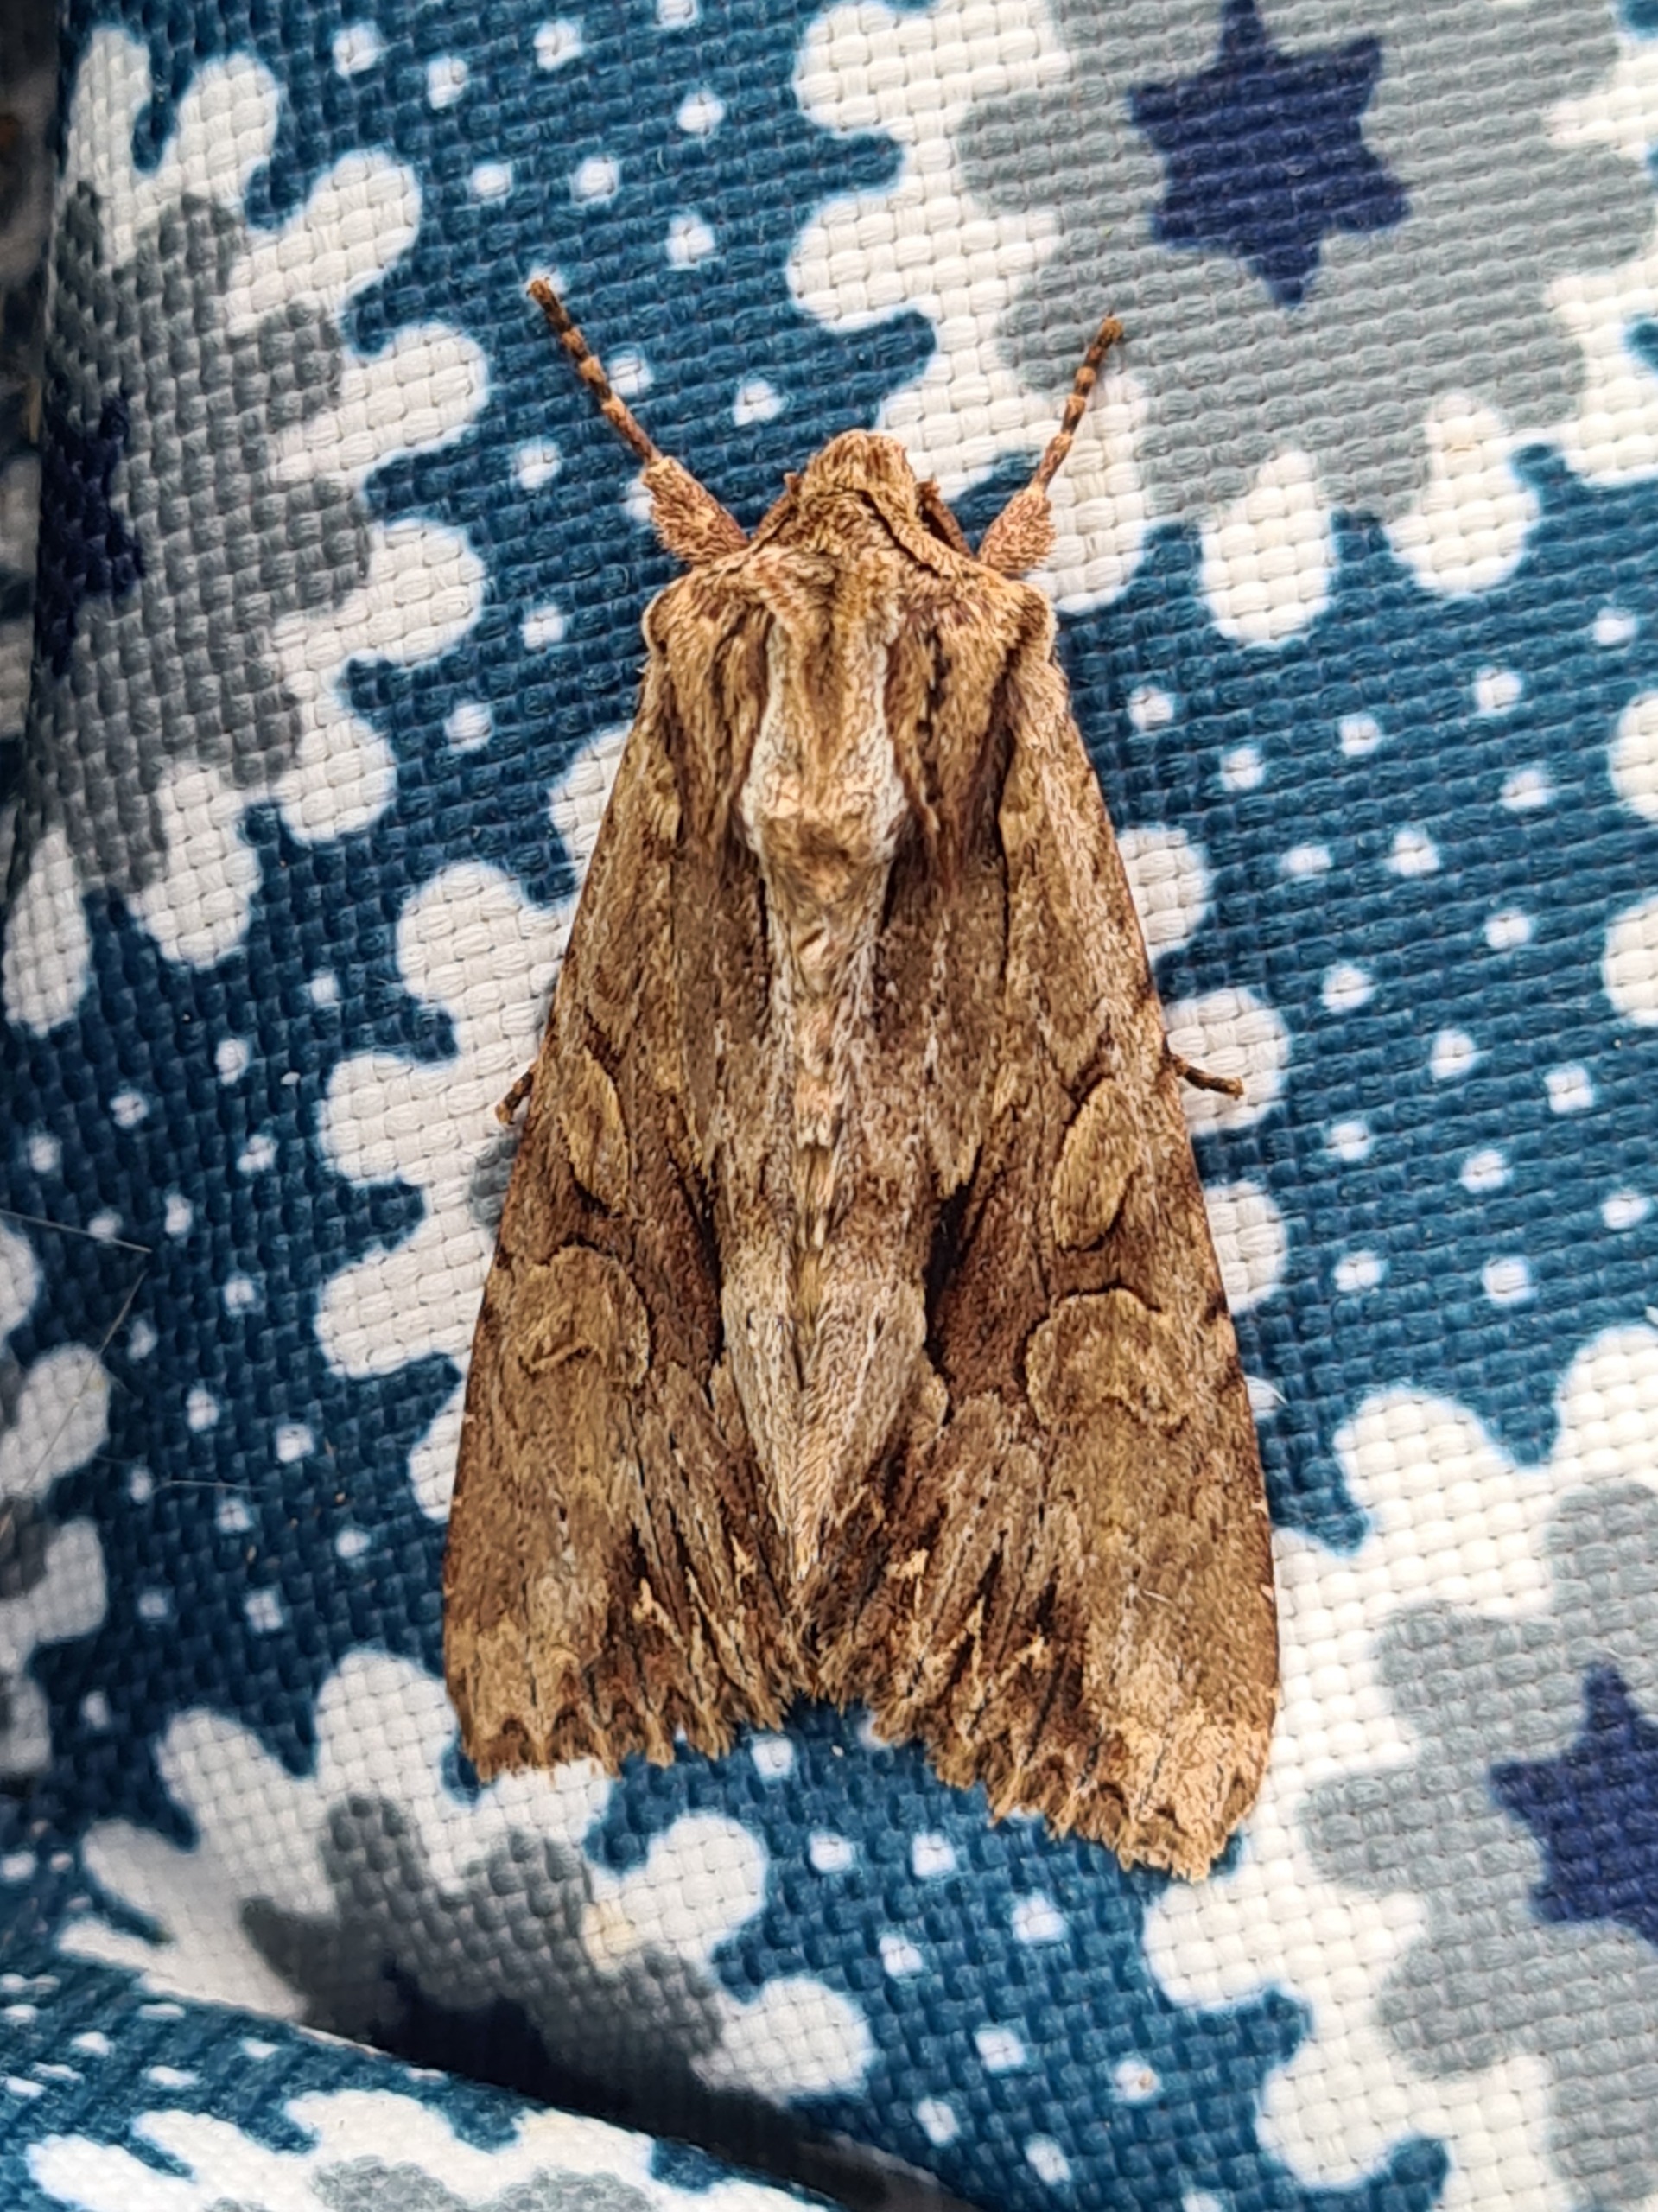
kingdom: Animalia
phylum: Arthropoda
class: Insecta
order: Lepidoptera
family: Noctuidae
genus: Apamea
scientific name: Apamea monoglypha
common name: Jordugle
